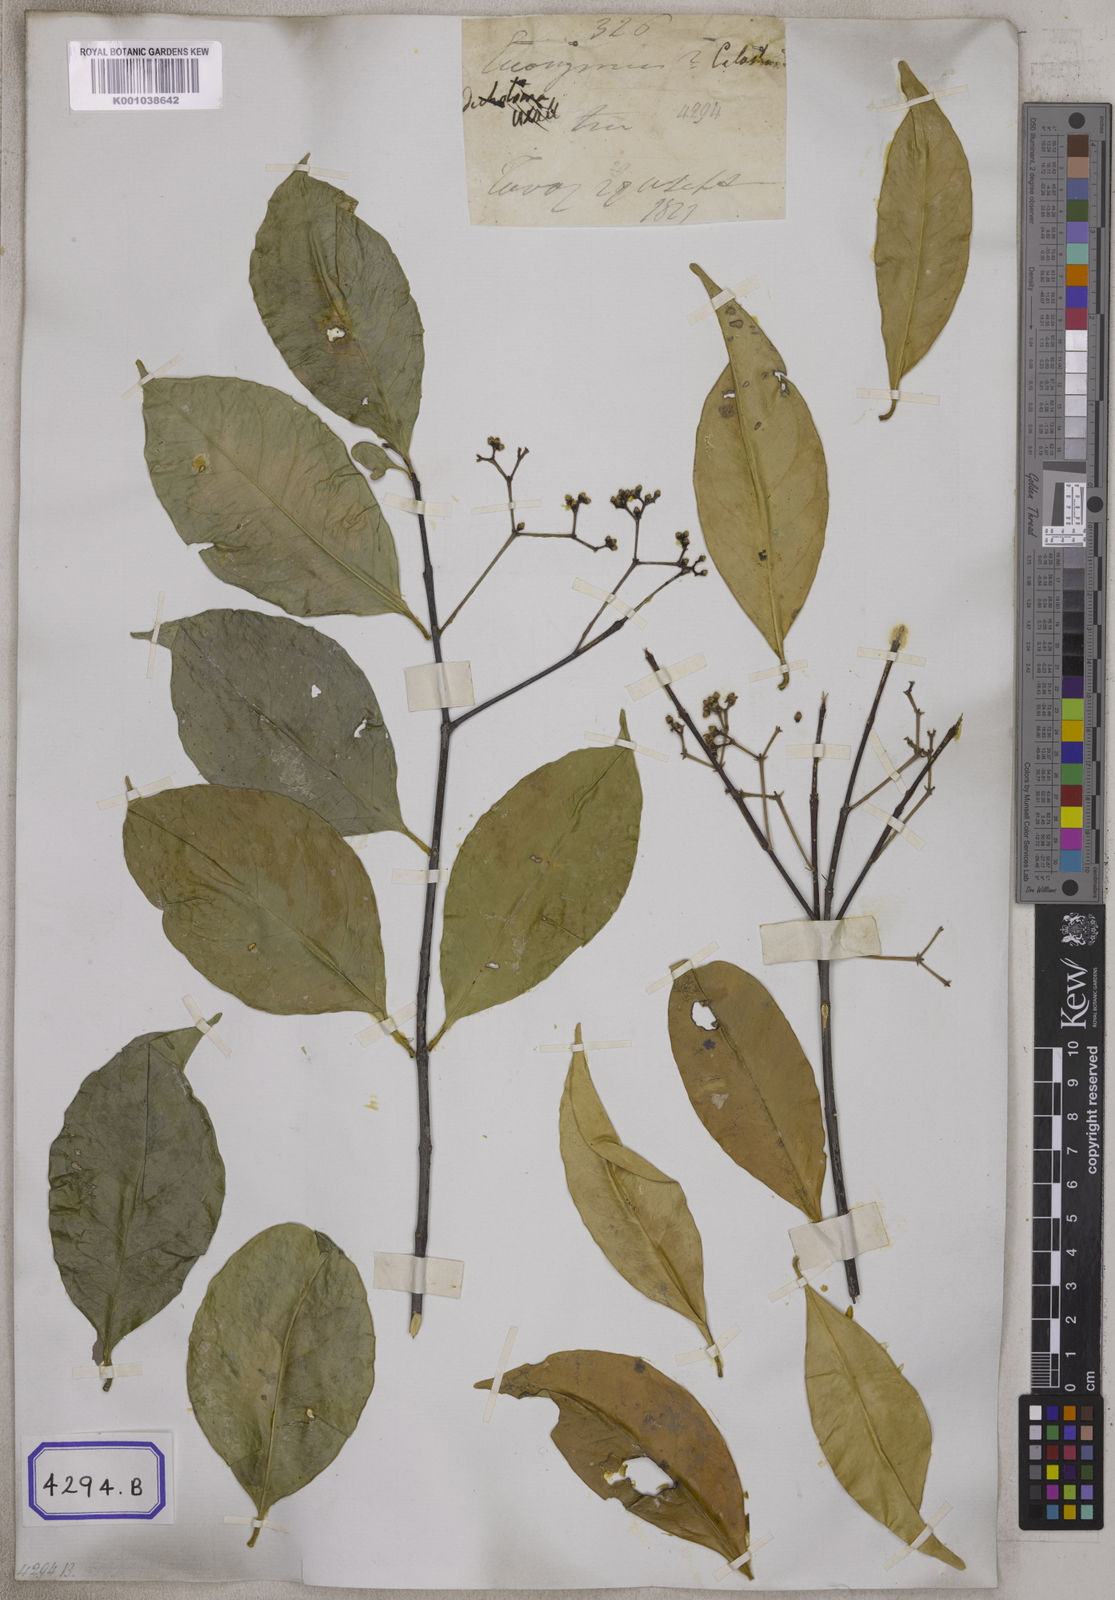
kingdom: Plantae
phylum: Tracheophyta
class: Magnoliopsida
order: Celastrales
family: Celastraceae
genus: Microtropis
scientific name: Microtropis bivalvis
